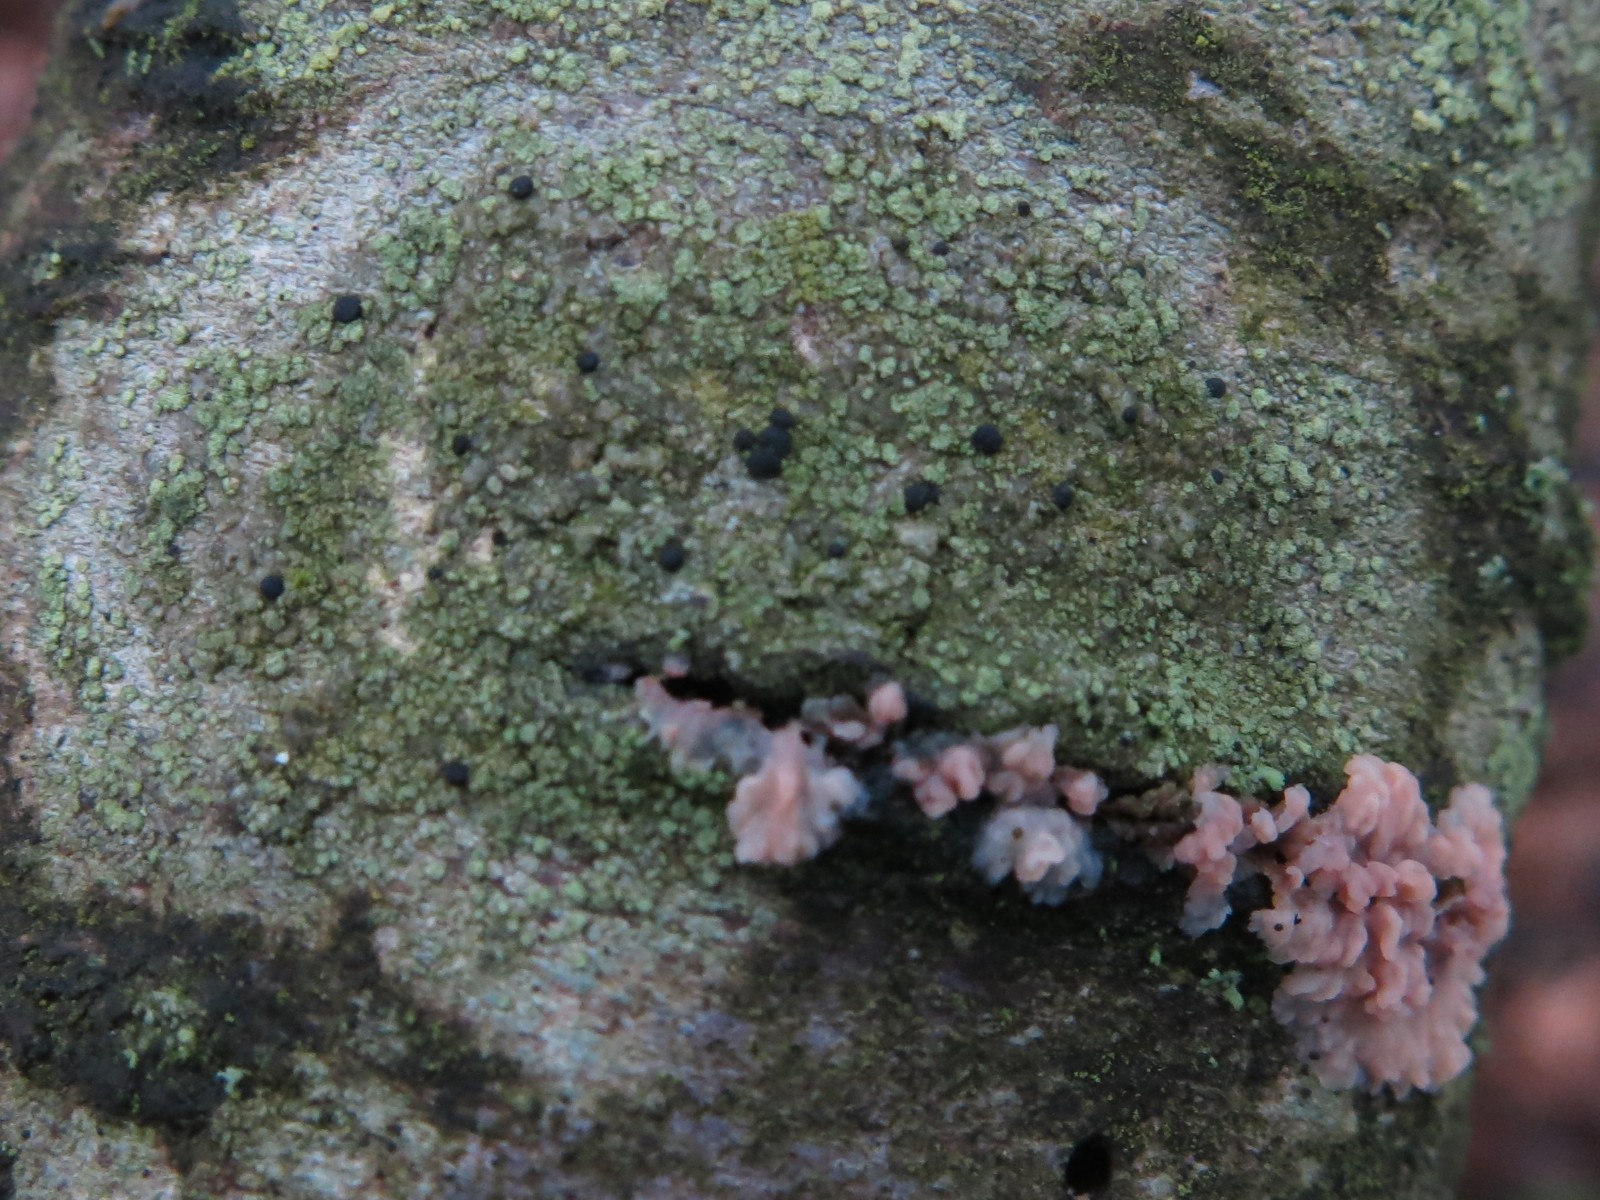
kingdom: Fungi
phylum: Ascomycota
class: Lecanoromycetes
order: Caliciales
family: Caliciaceae
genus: Buellia
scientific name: Buellia griseovirens
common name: grågrøn sortskivelav
